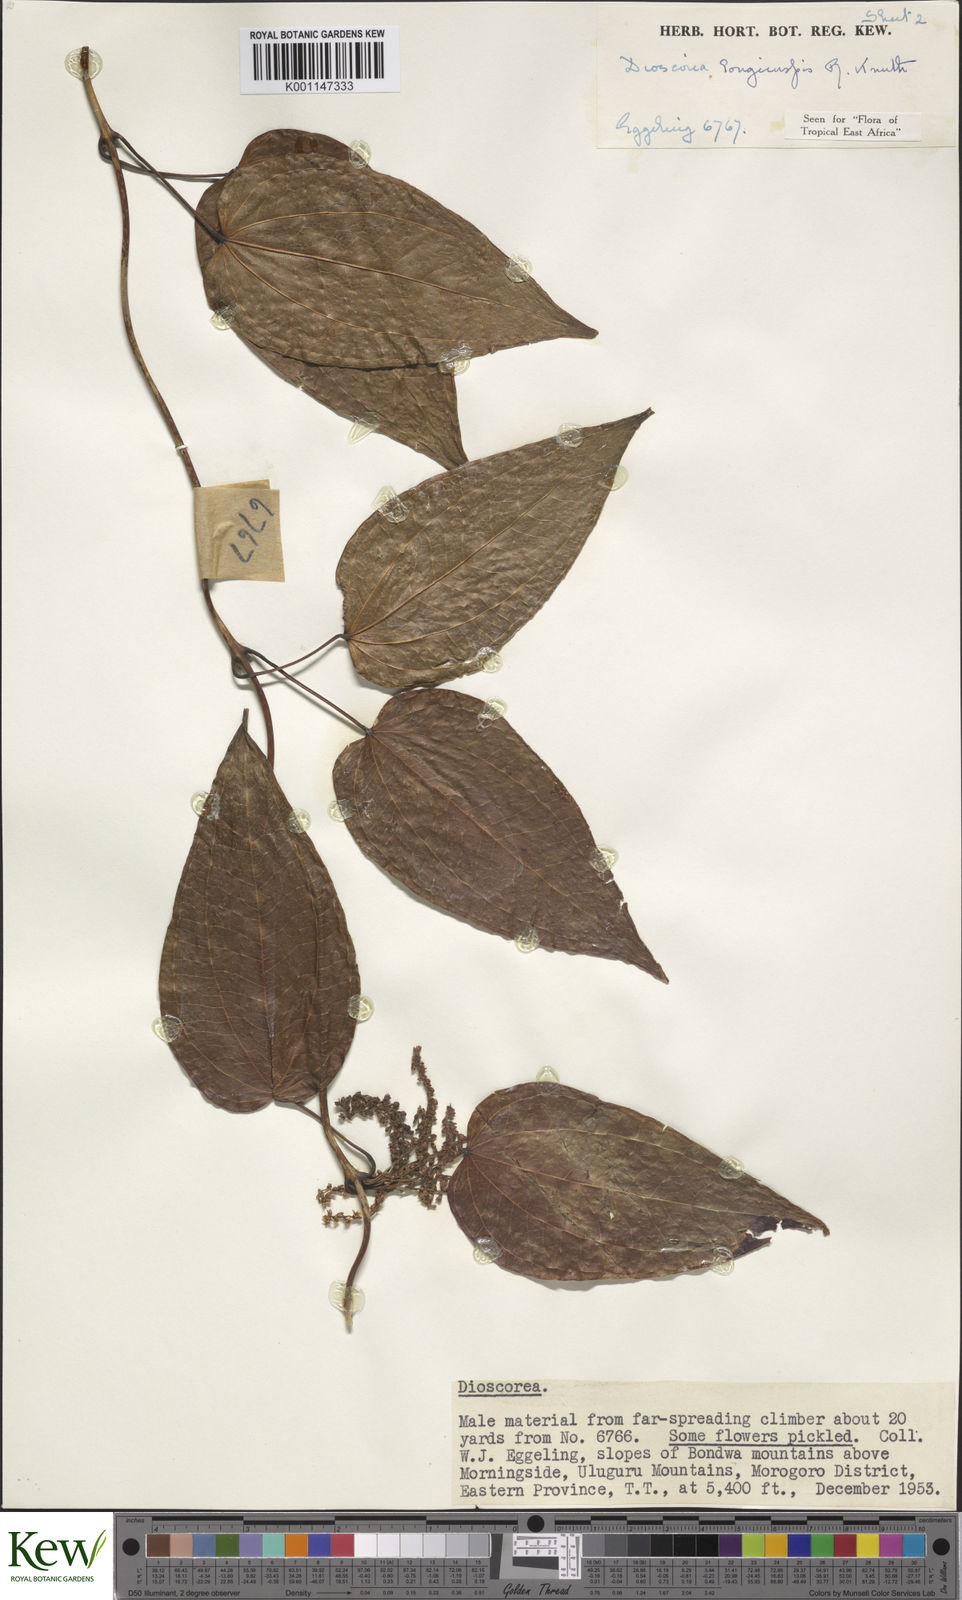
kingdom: Plantae
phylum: Tracheophyta
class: Liliopsida
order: Dioscoreales
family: Dioscoreaceae
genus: Dioscorea
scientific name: Dioscorea longicuspis
